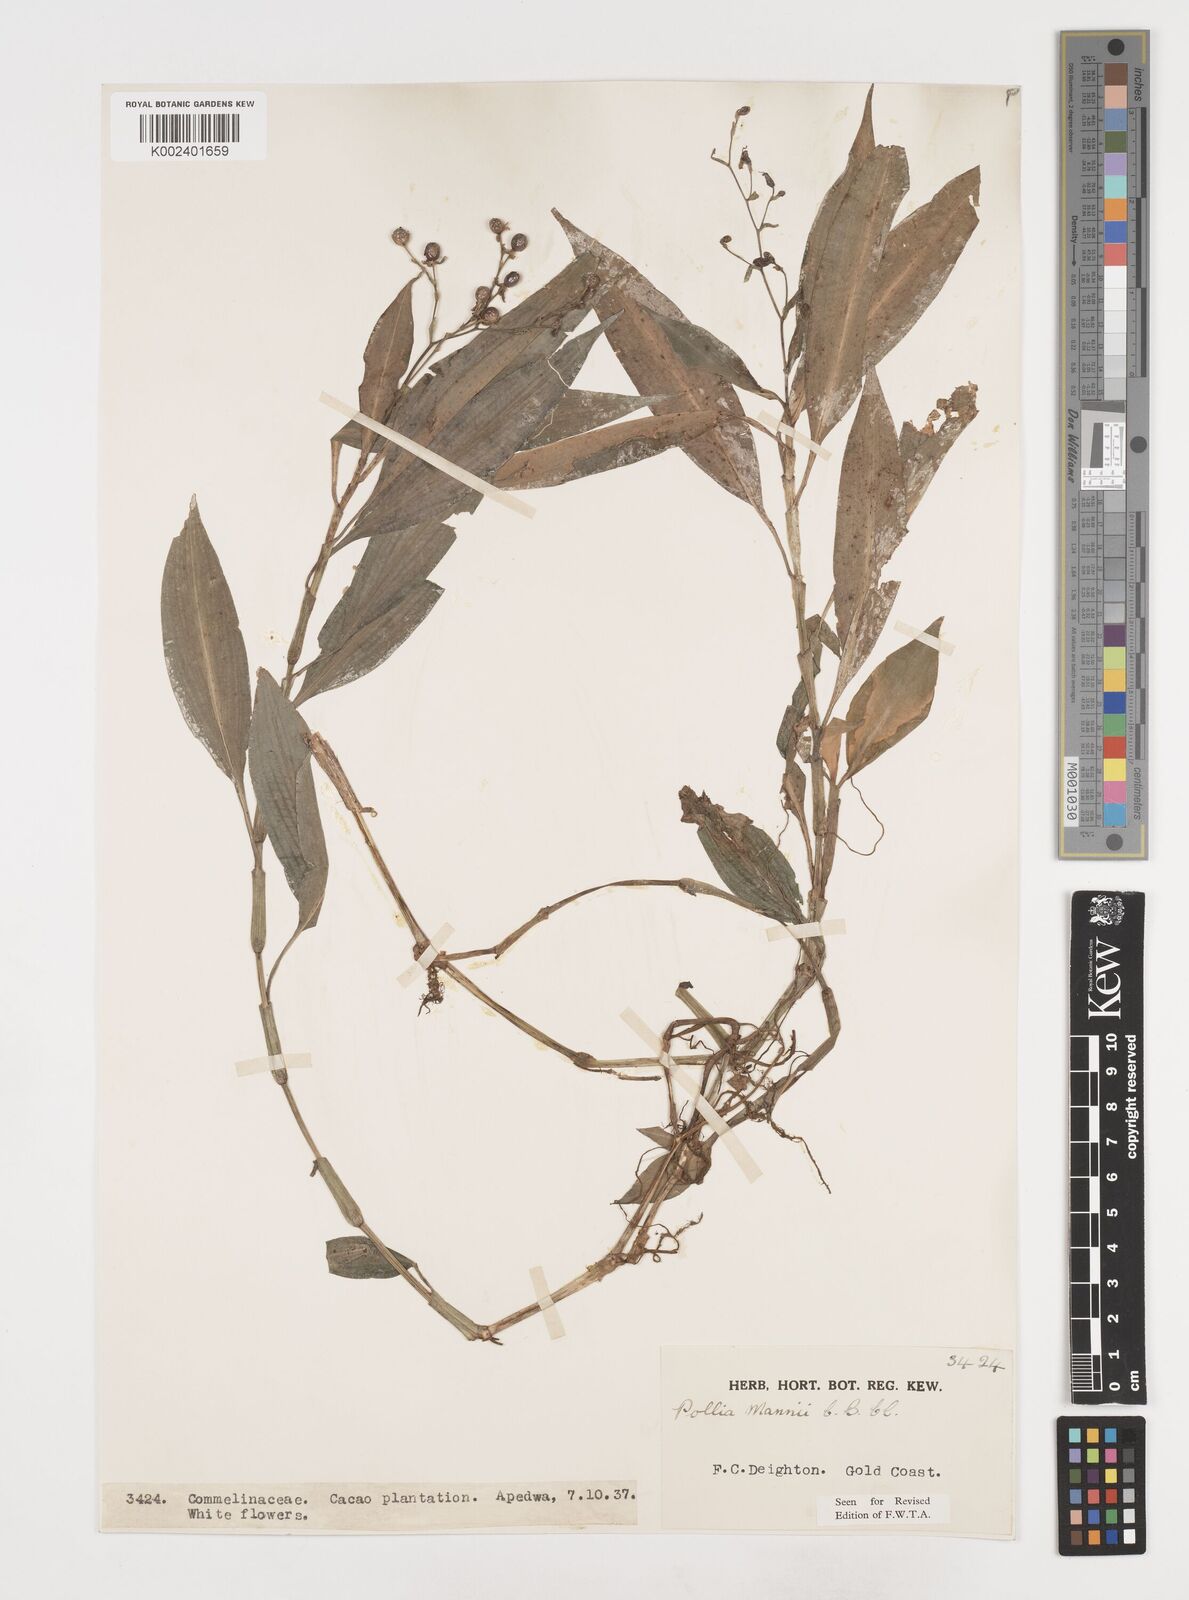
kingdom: Plantae
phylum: Tracheophyta
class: Liliopsida
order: Commelinales
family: Commelinaceae
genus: Pollia
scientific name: Pollia mannii
